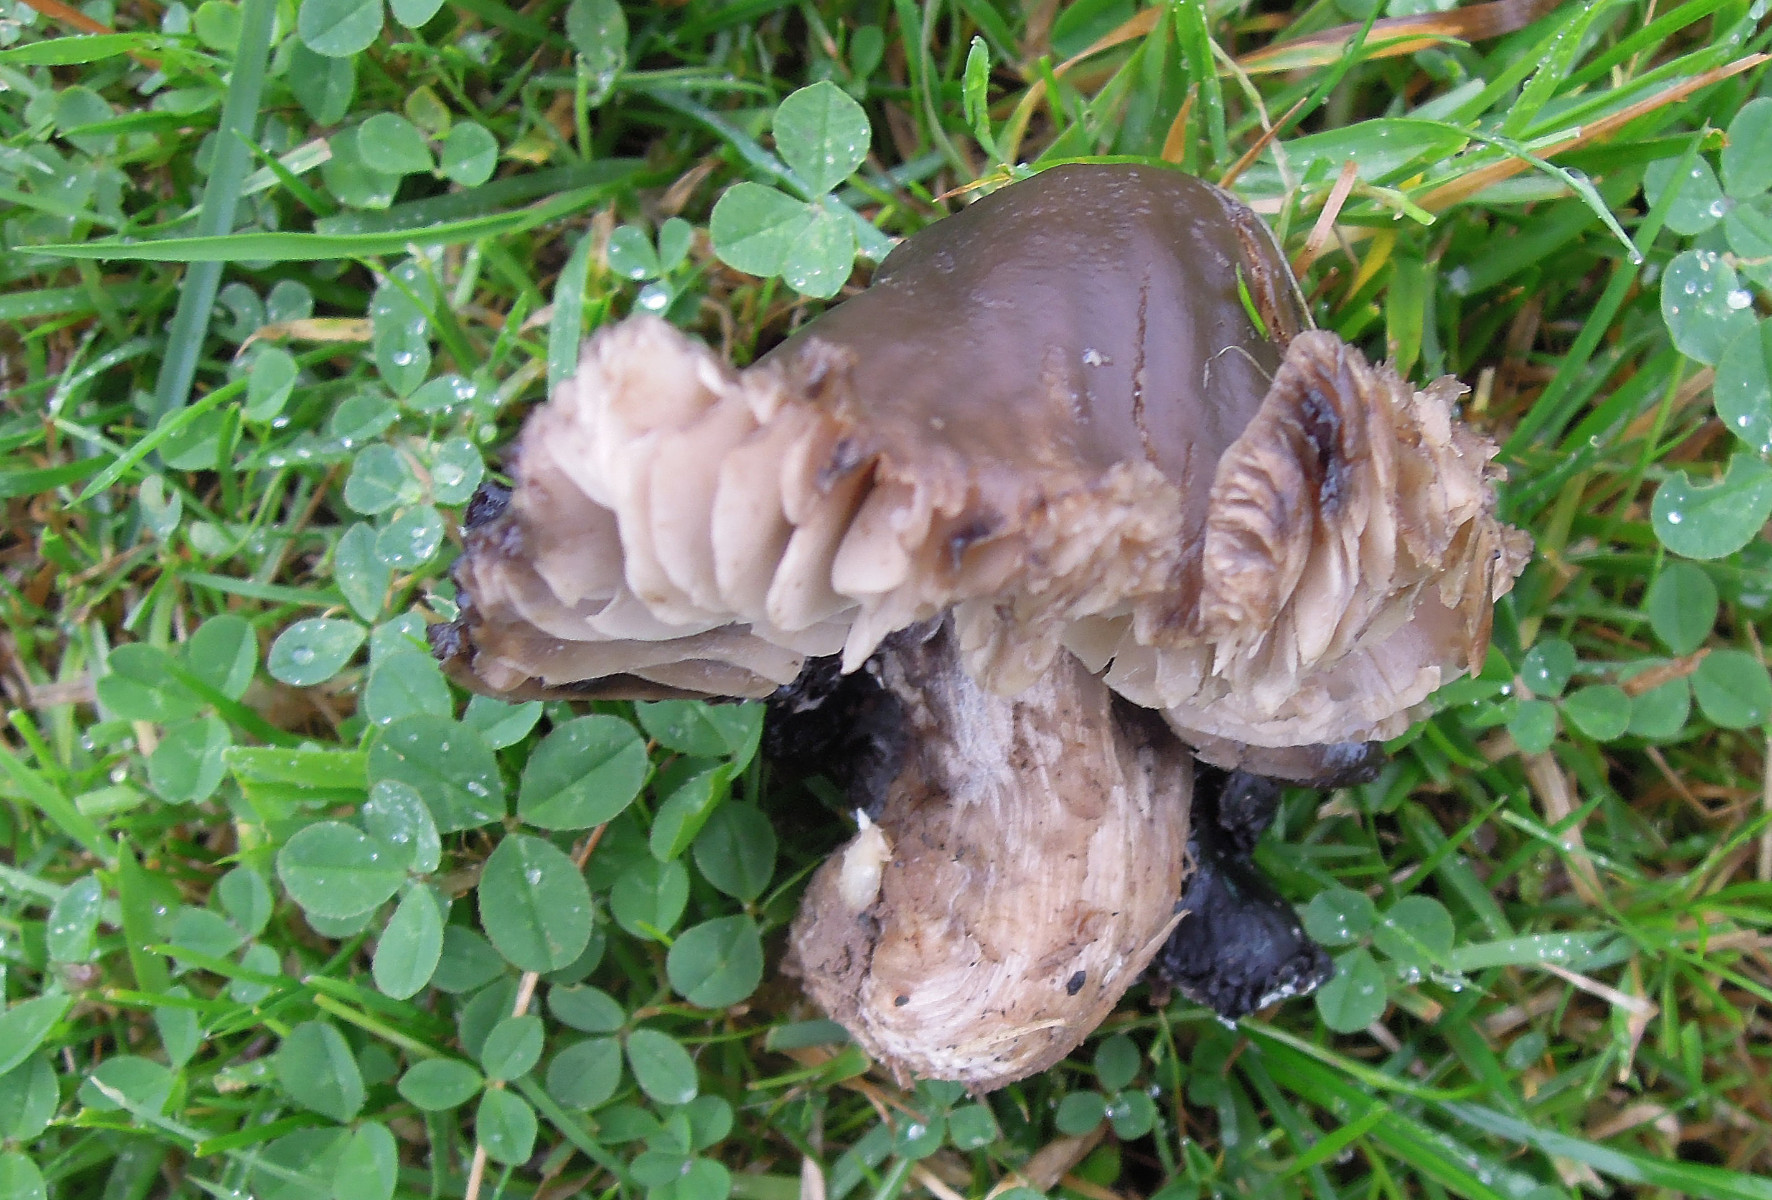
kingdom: Fungi
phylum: Basidiomycota
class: Agaricomycetes
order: Agaricales
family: Hygrophoraceae
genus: Neohygrocybe
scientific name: Neohygrocybe ovina
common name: rødmende vokshat
